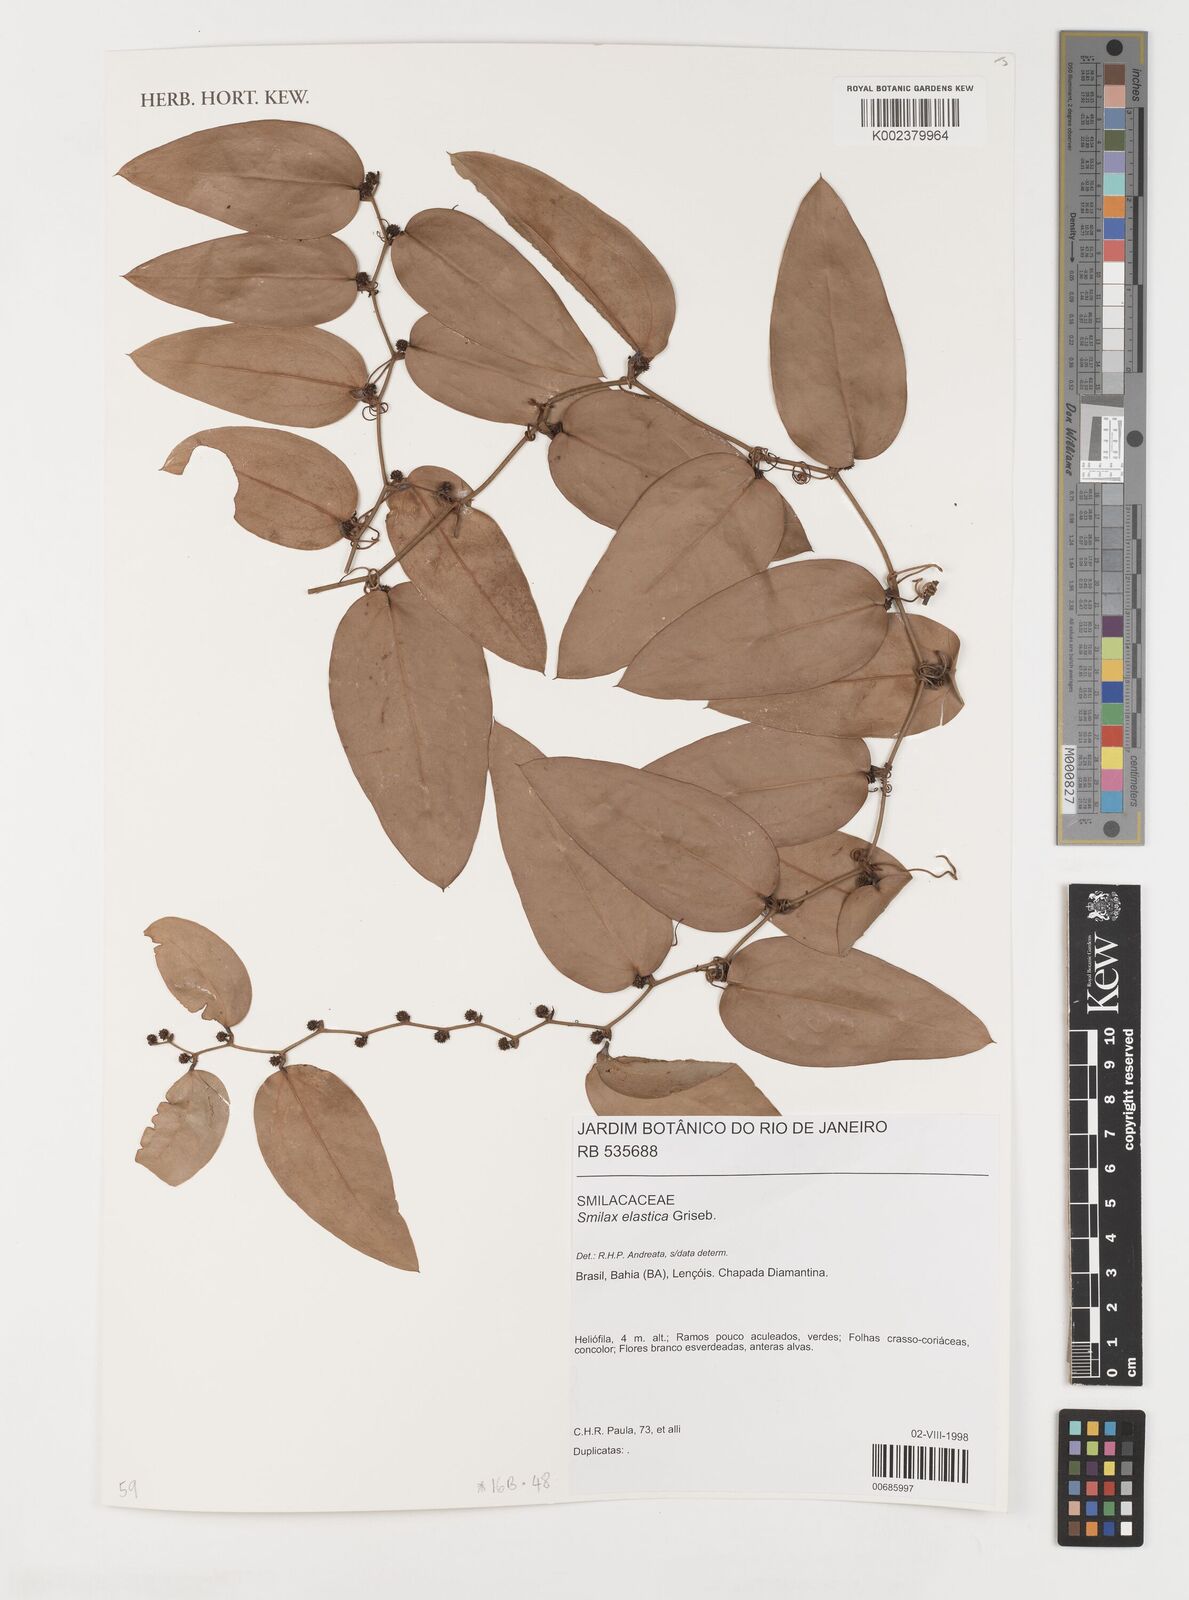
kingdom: Plantae
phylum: Tracheophyta
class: Liliopsida
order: Liliales
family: Smilacaceae
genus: Smilax
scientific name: Smilax elastica
